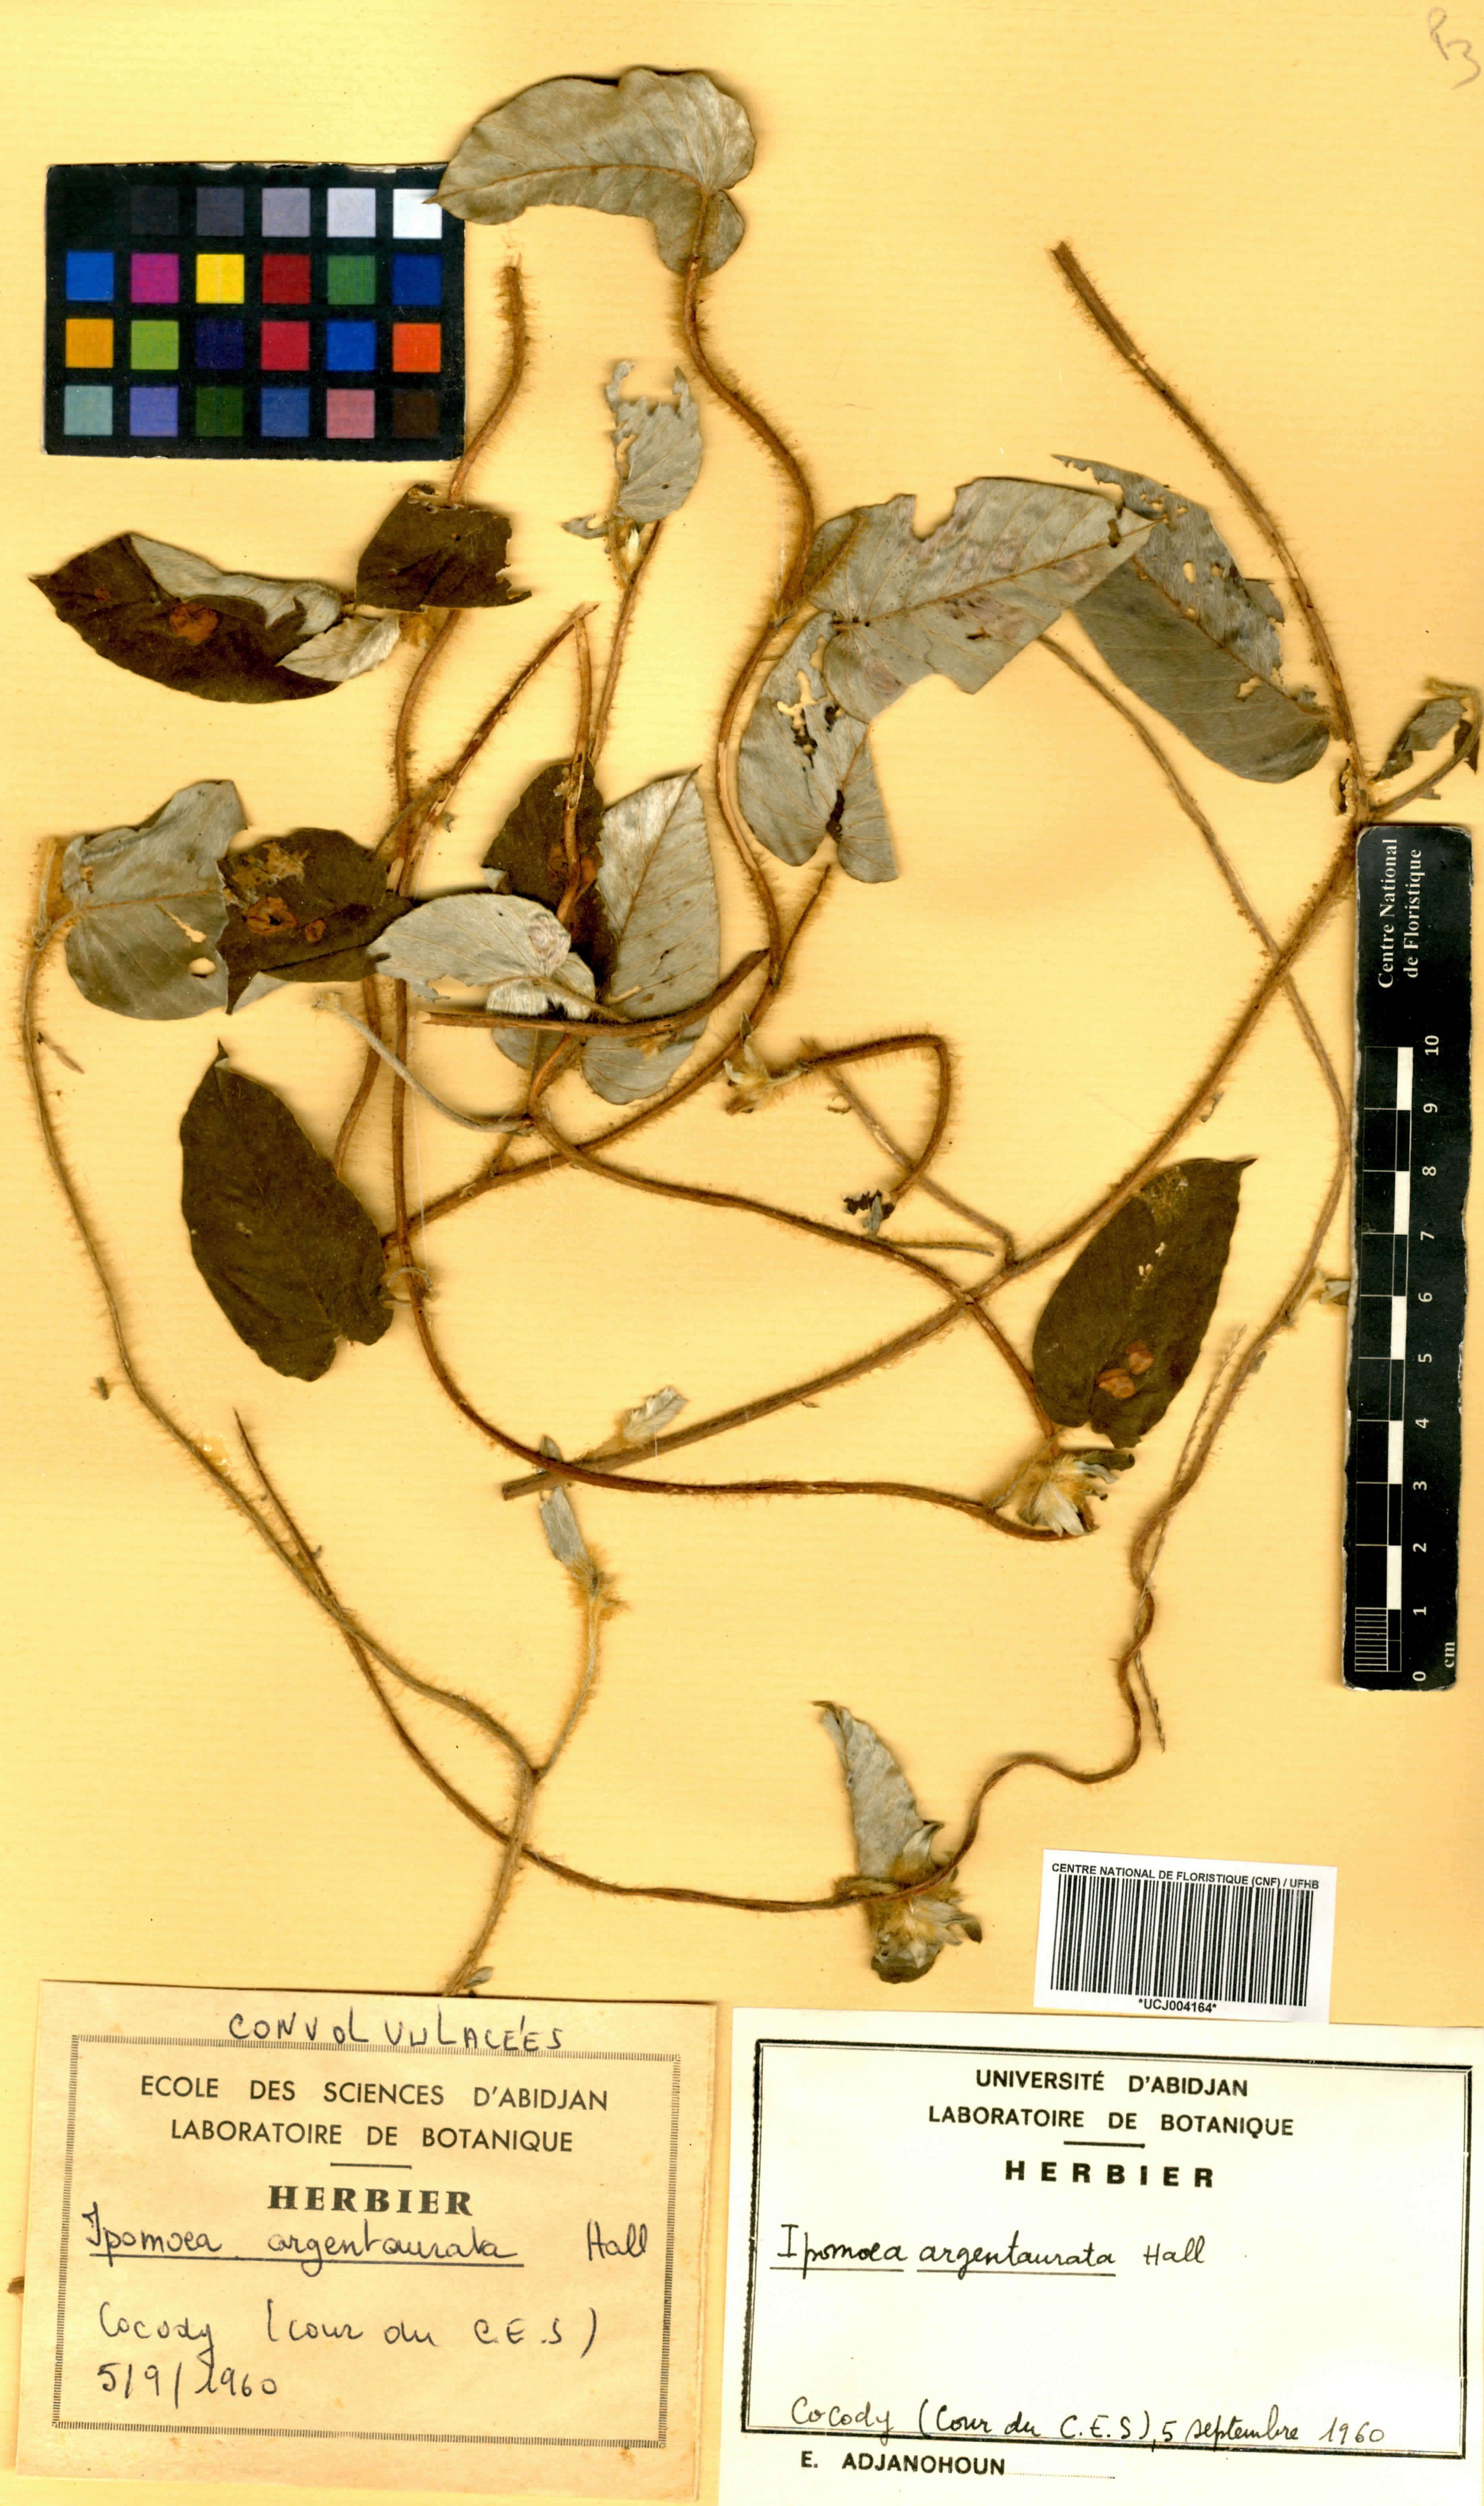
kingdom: Plantae
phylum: Tracheophyta
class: Magnoliopsida
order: Solanales
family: Convolvulaceae
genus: Ipomoea
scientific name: Ipomoea argentaurata
